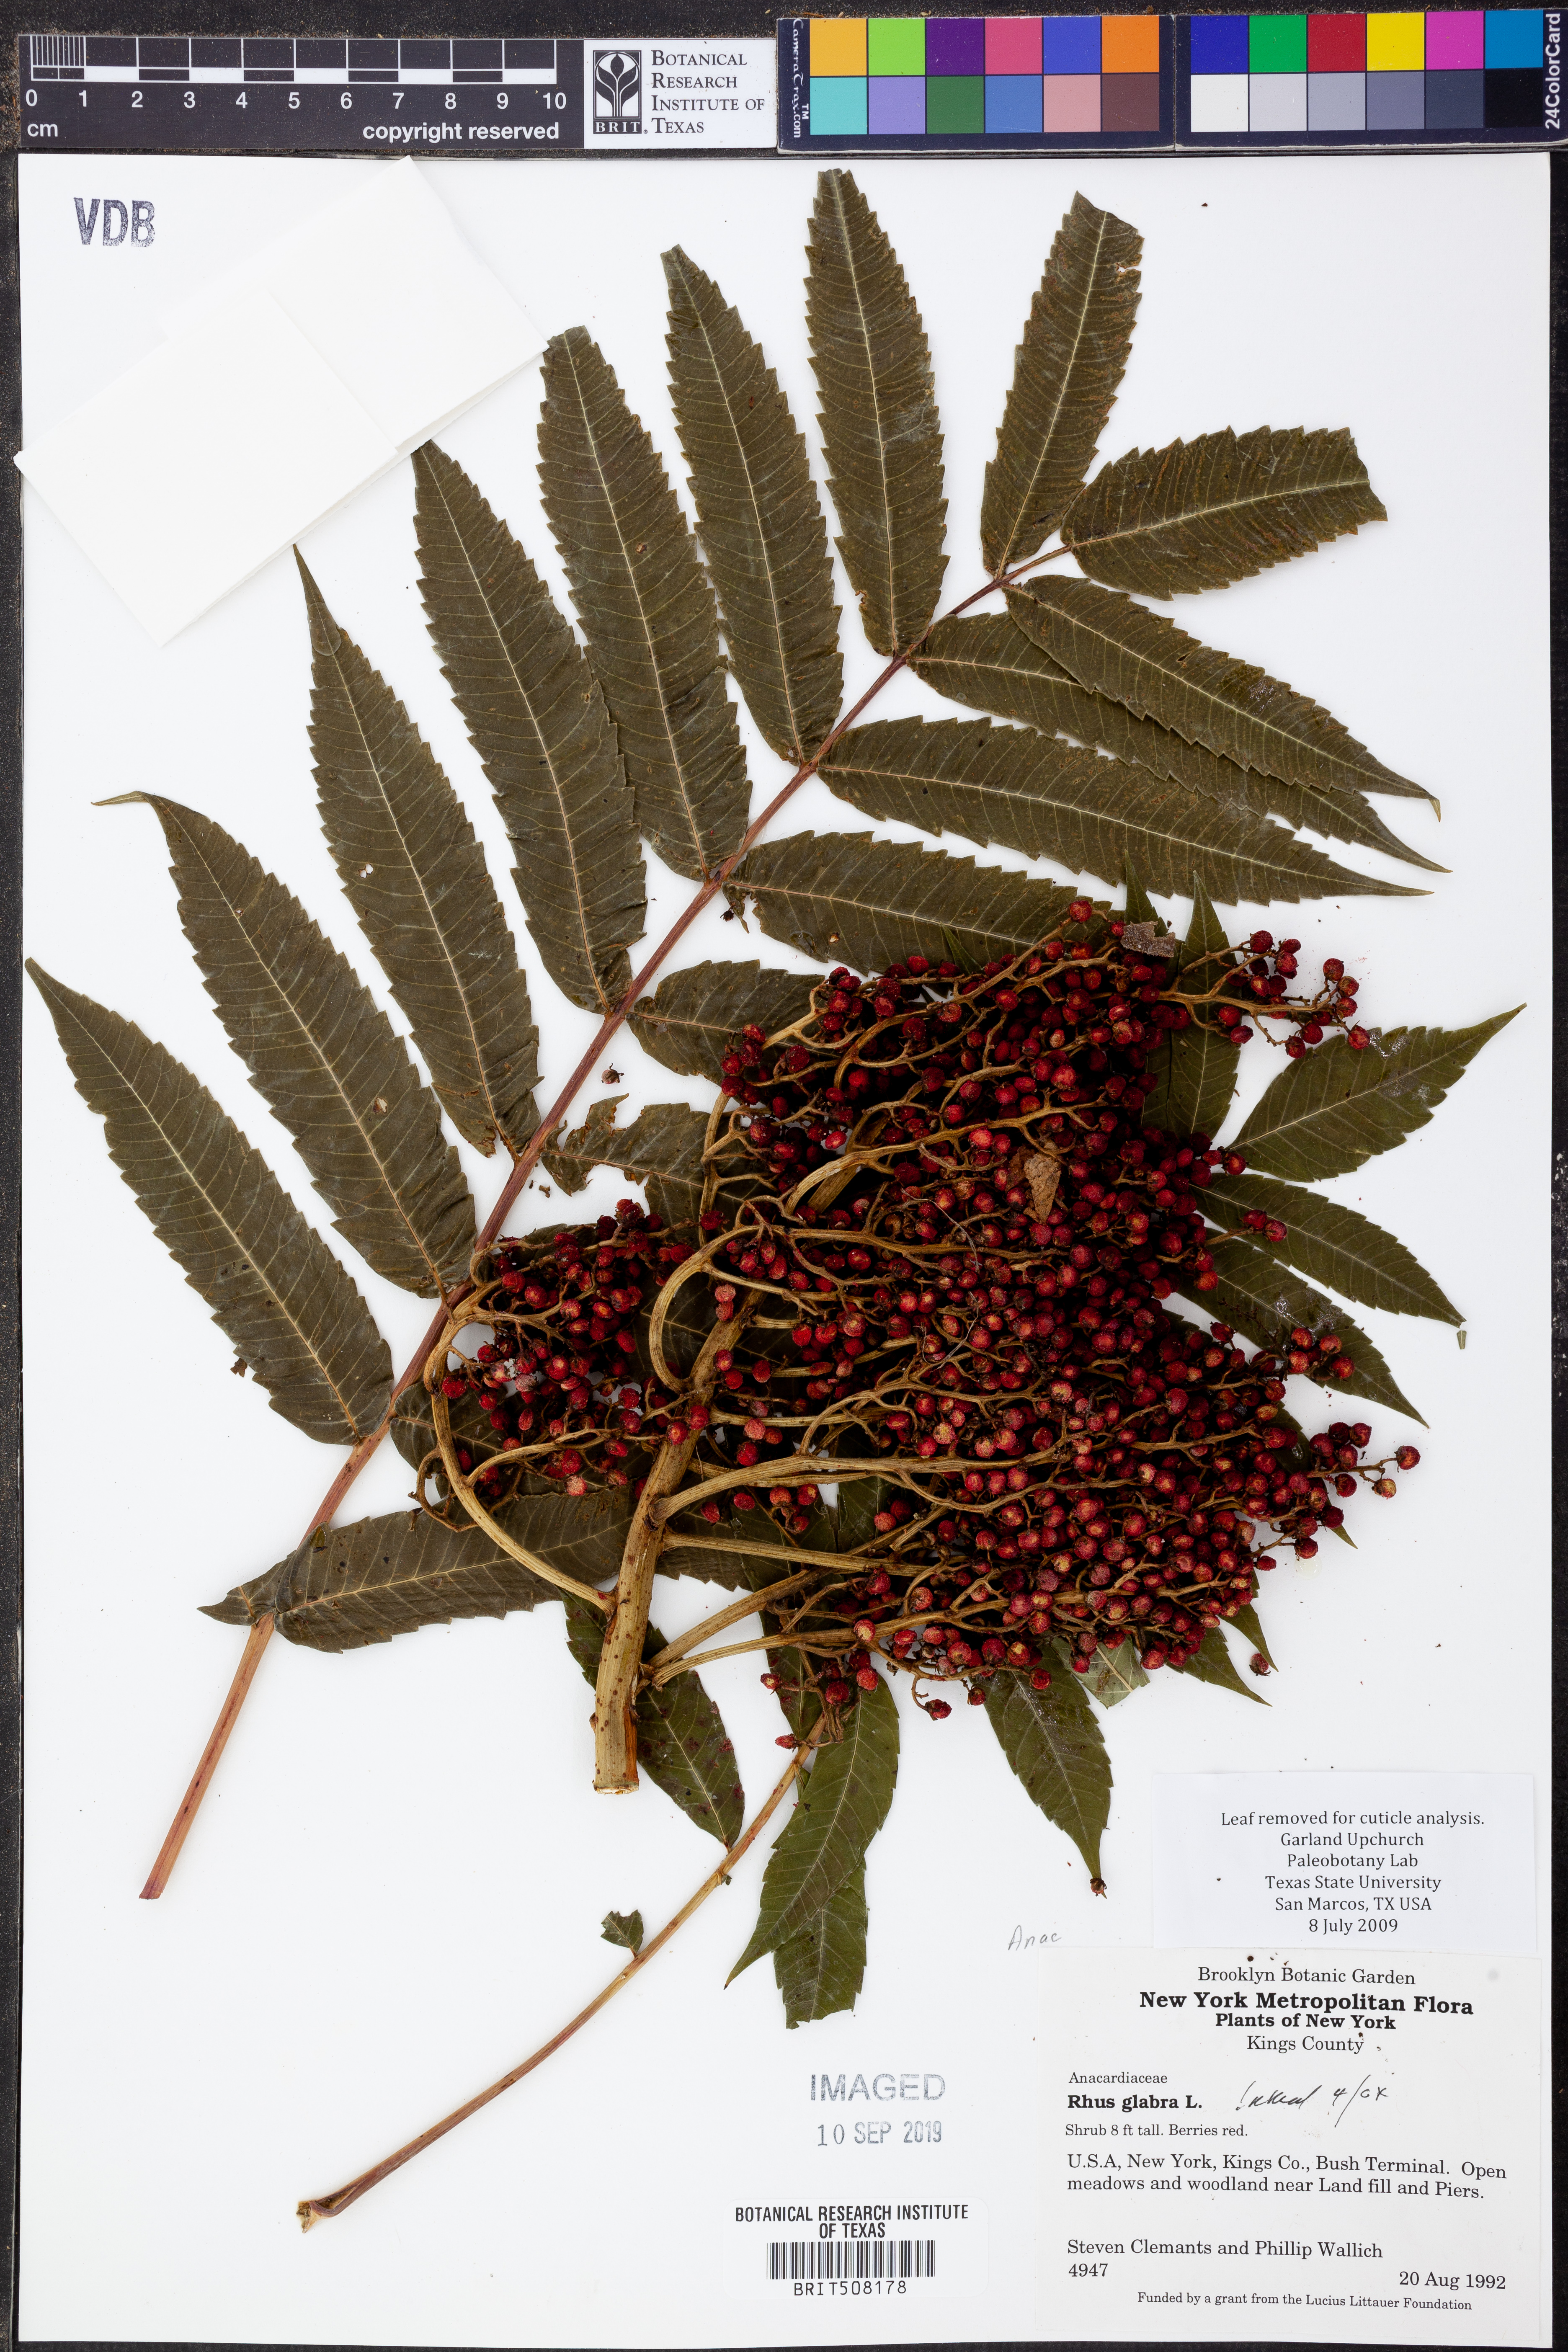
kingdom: Plantae
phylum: Tracheophyta
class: Magnoliopsida
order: Sapindales
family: Anacardiaceae
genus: Rhus
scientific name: Rhus glabra
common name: Scarlet sumac
